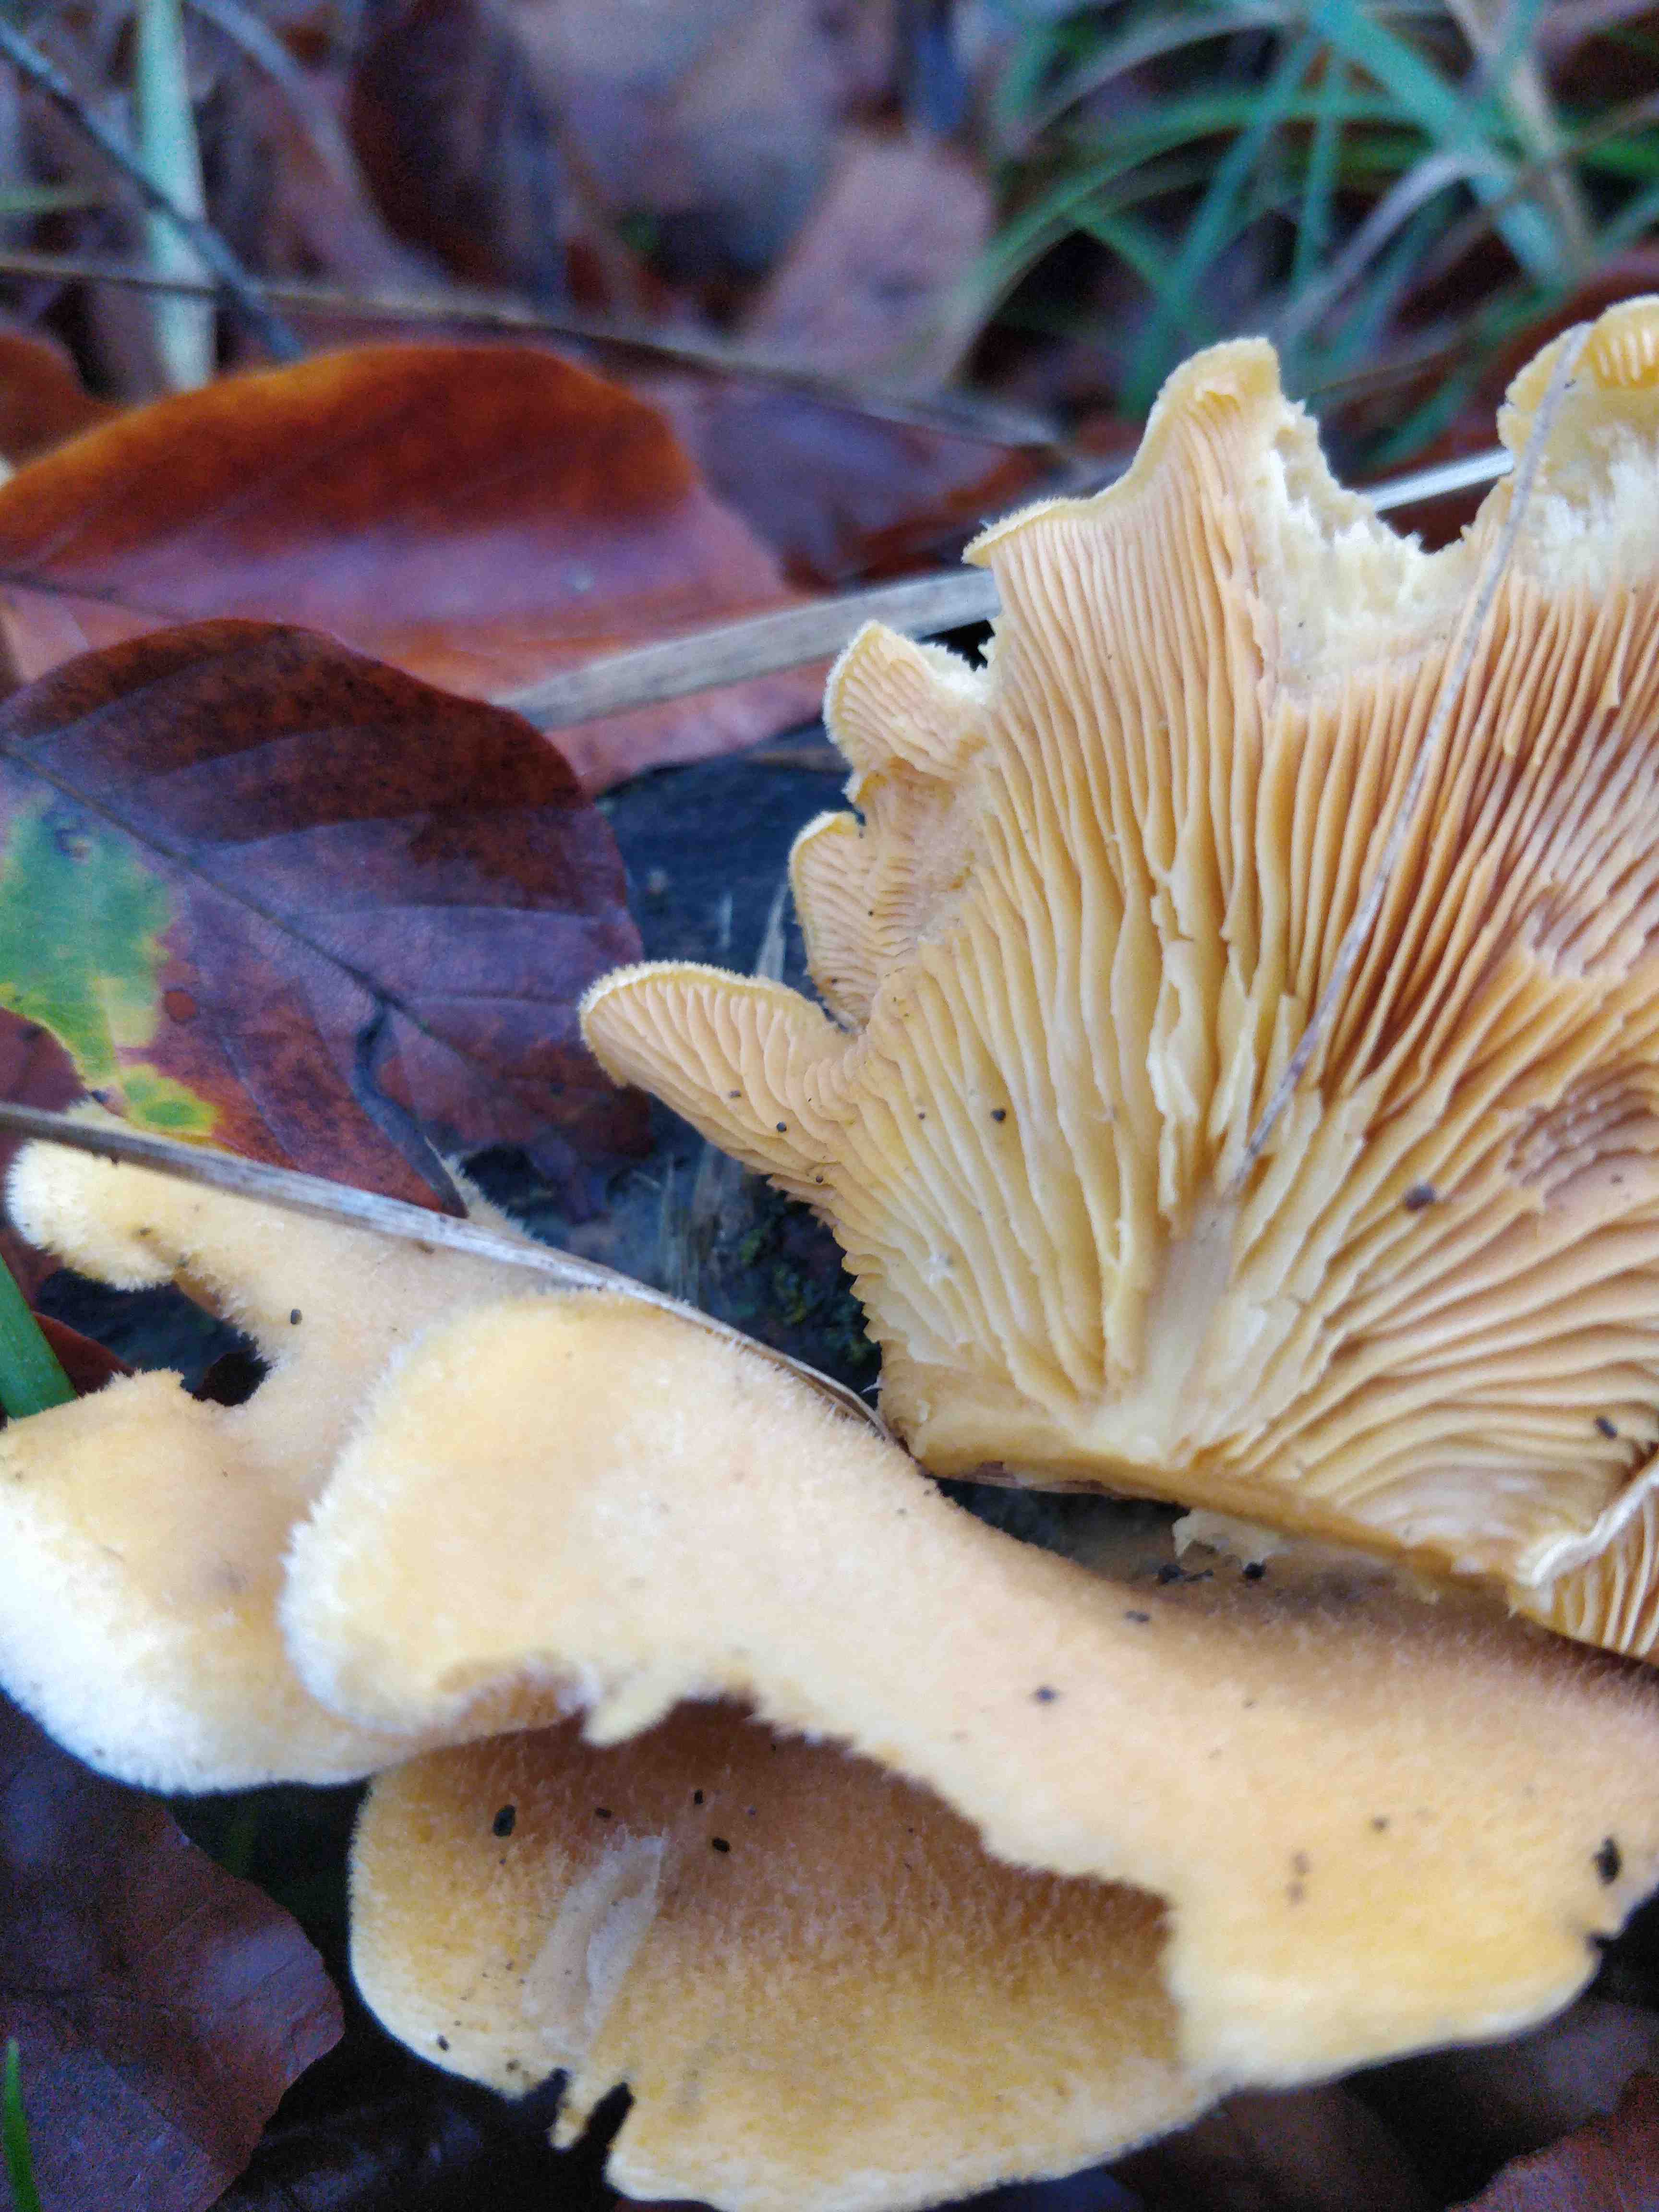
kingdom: Fungi
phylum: Basidiomycota
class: Agaricomycetes
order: Agaricales
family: Phyllotopsidaceae
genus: Phyllotopsis
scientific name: Phyllotopsis nidulans
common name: okkerblad
